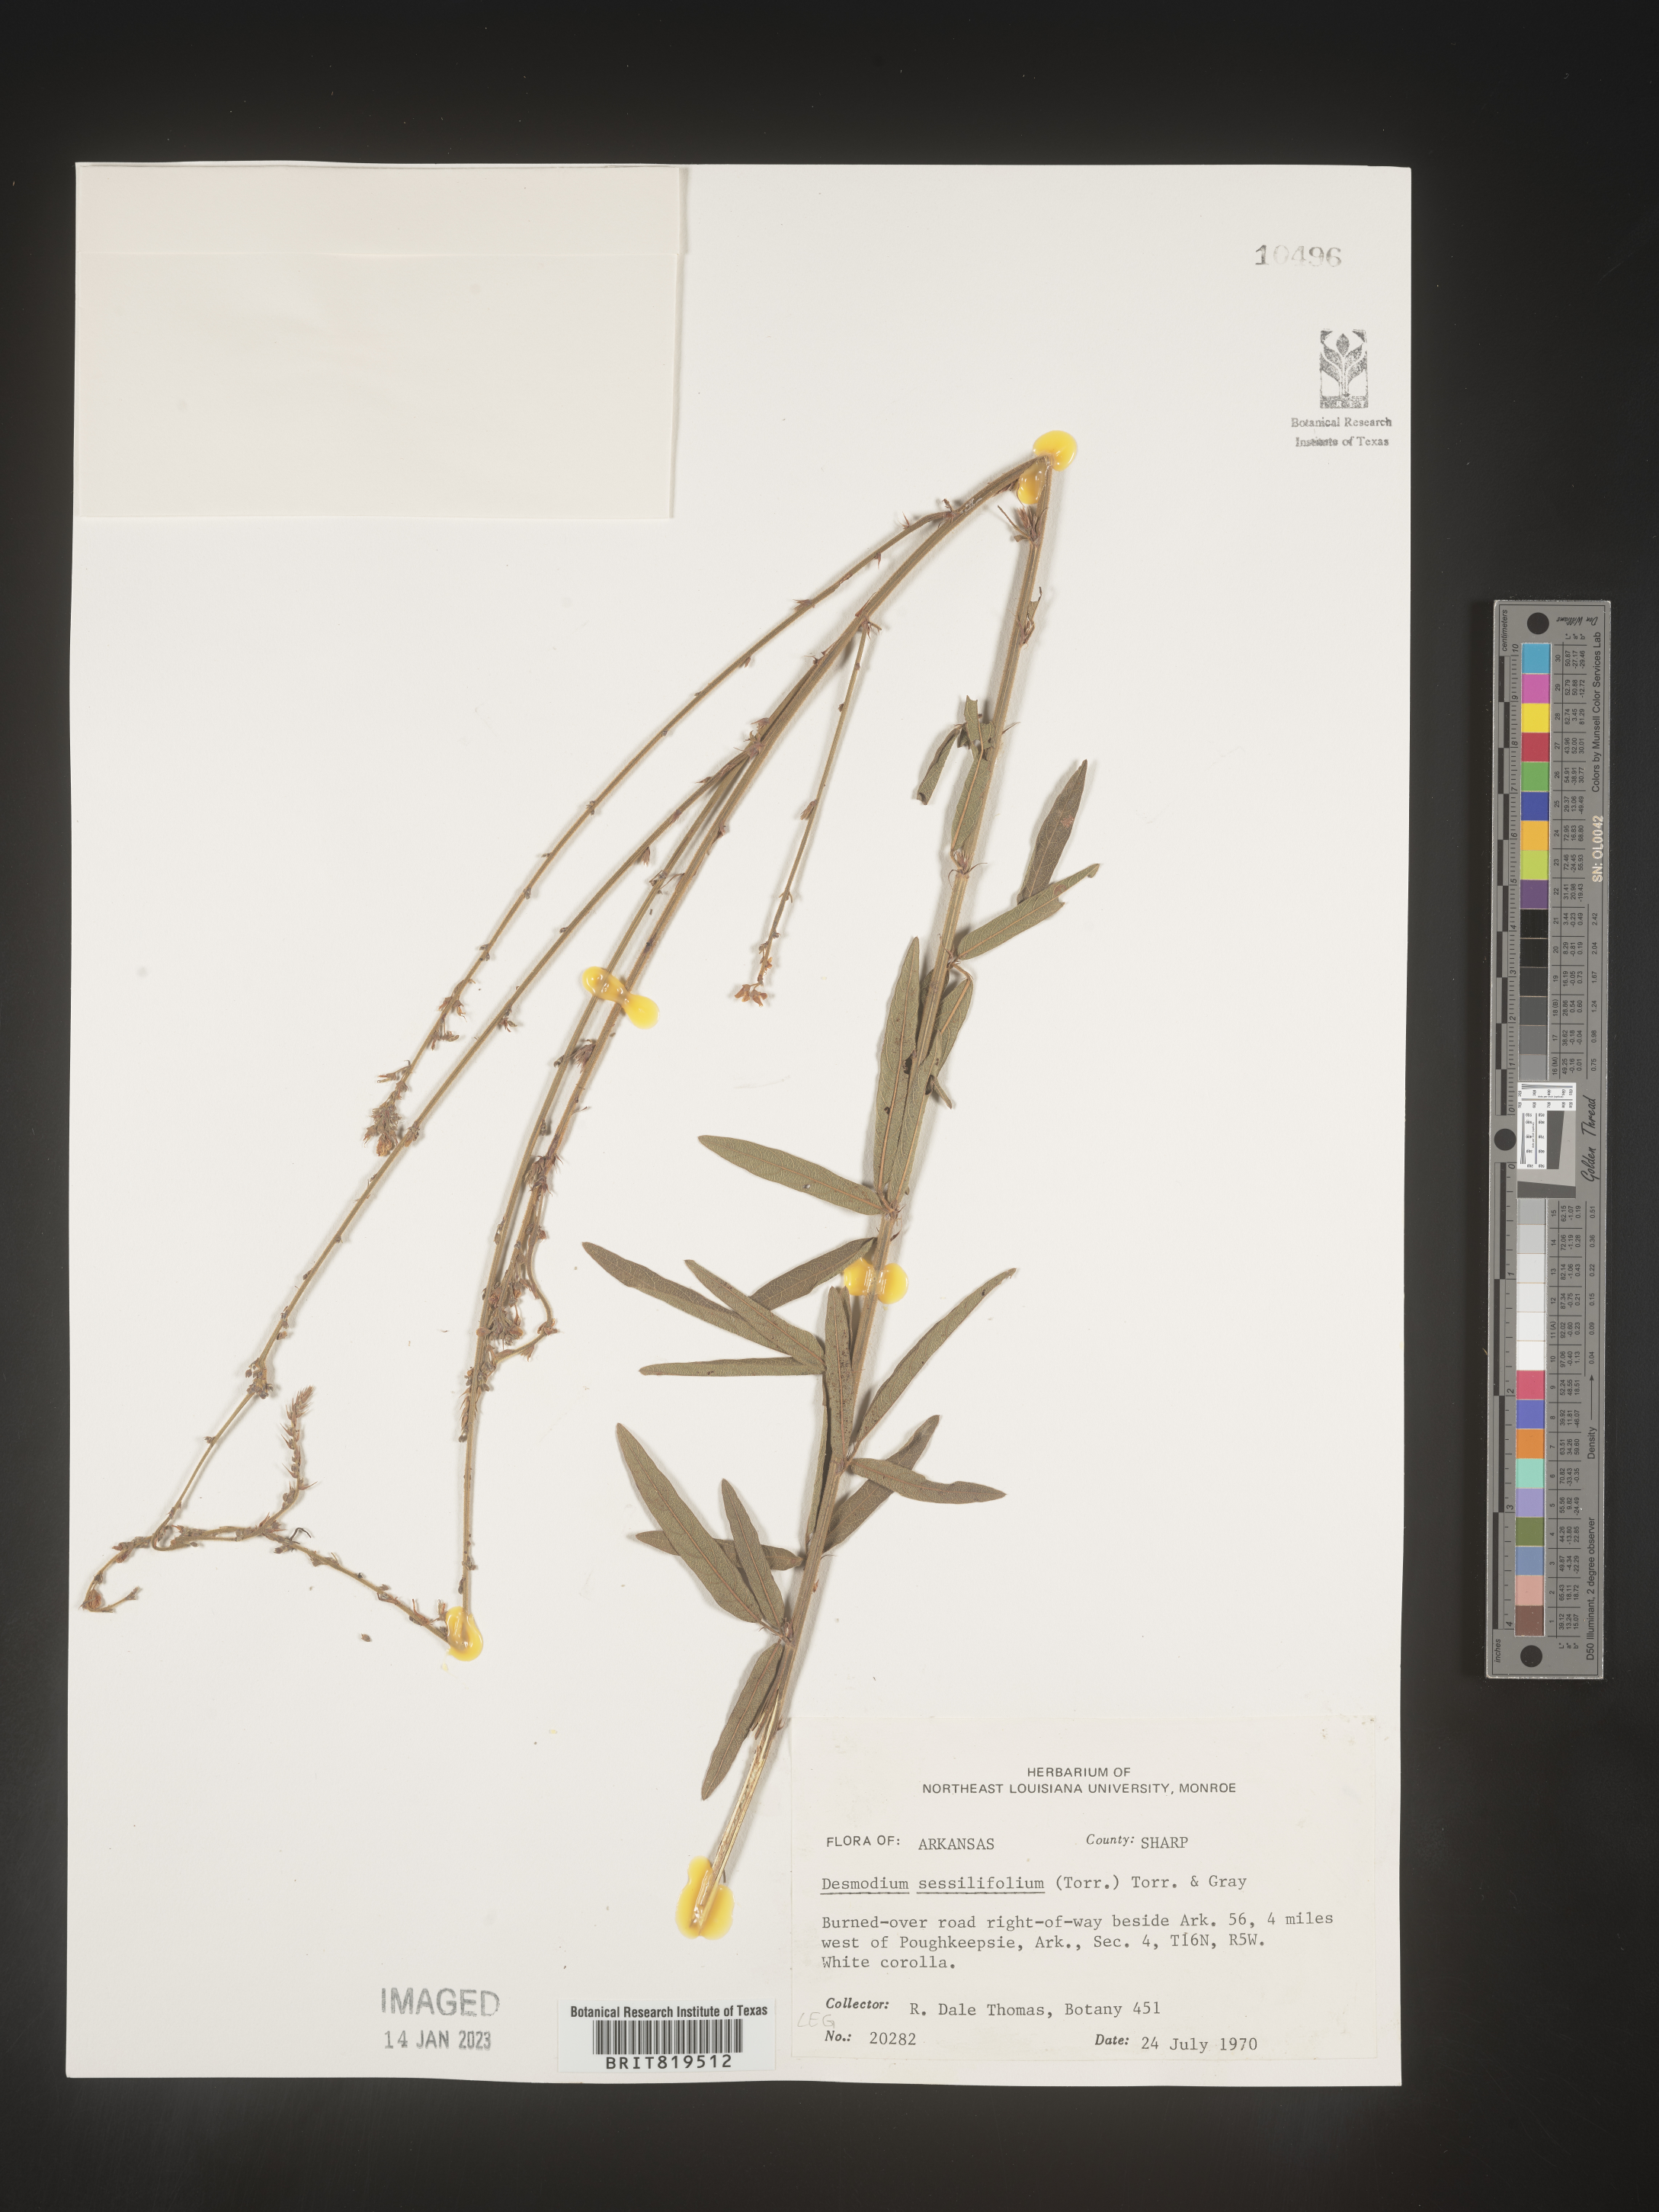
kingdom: Plantae
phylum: Tracheophyta
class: Magnoliopsida
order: Fabales
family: Fabaceae
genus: Desmodium
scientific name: Desmodium sessilifolium
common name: Sessile tick-clover
